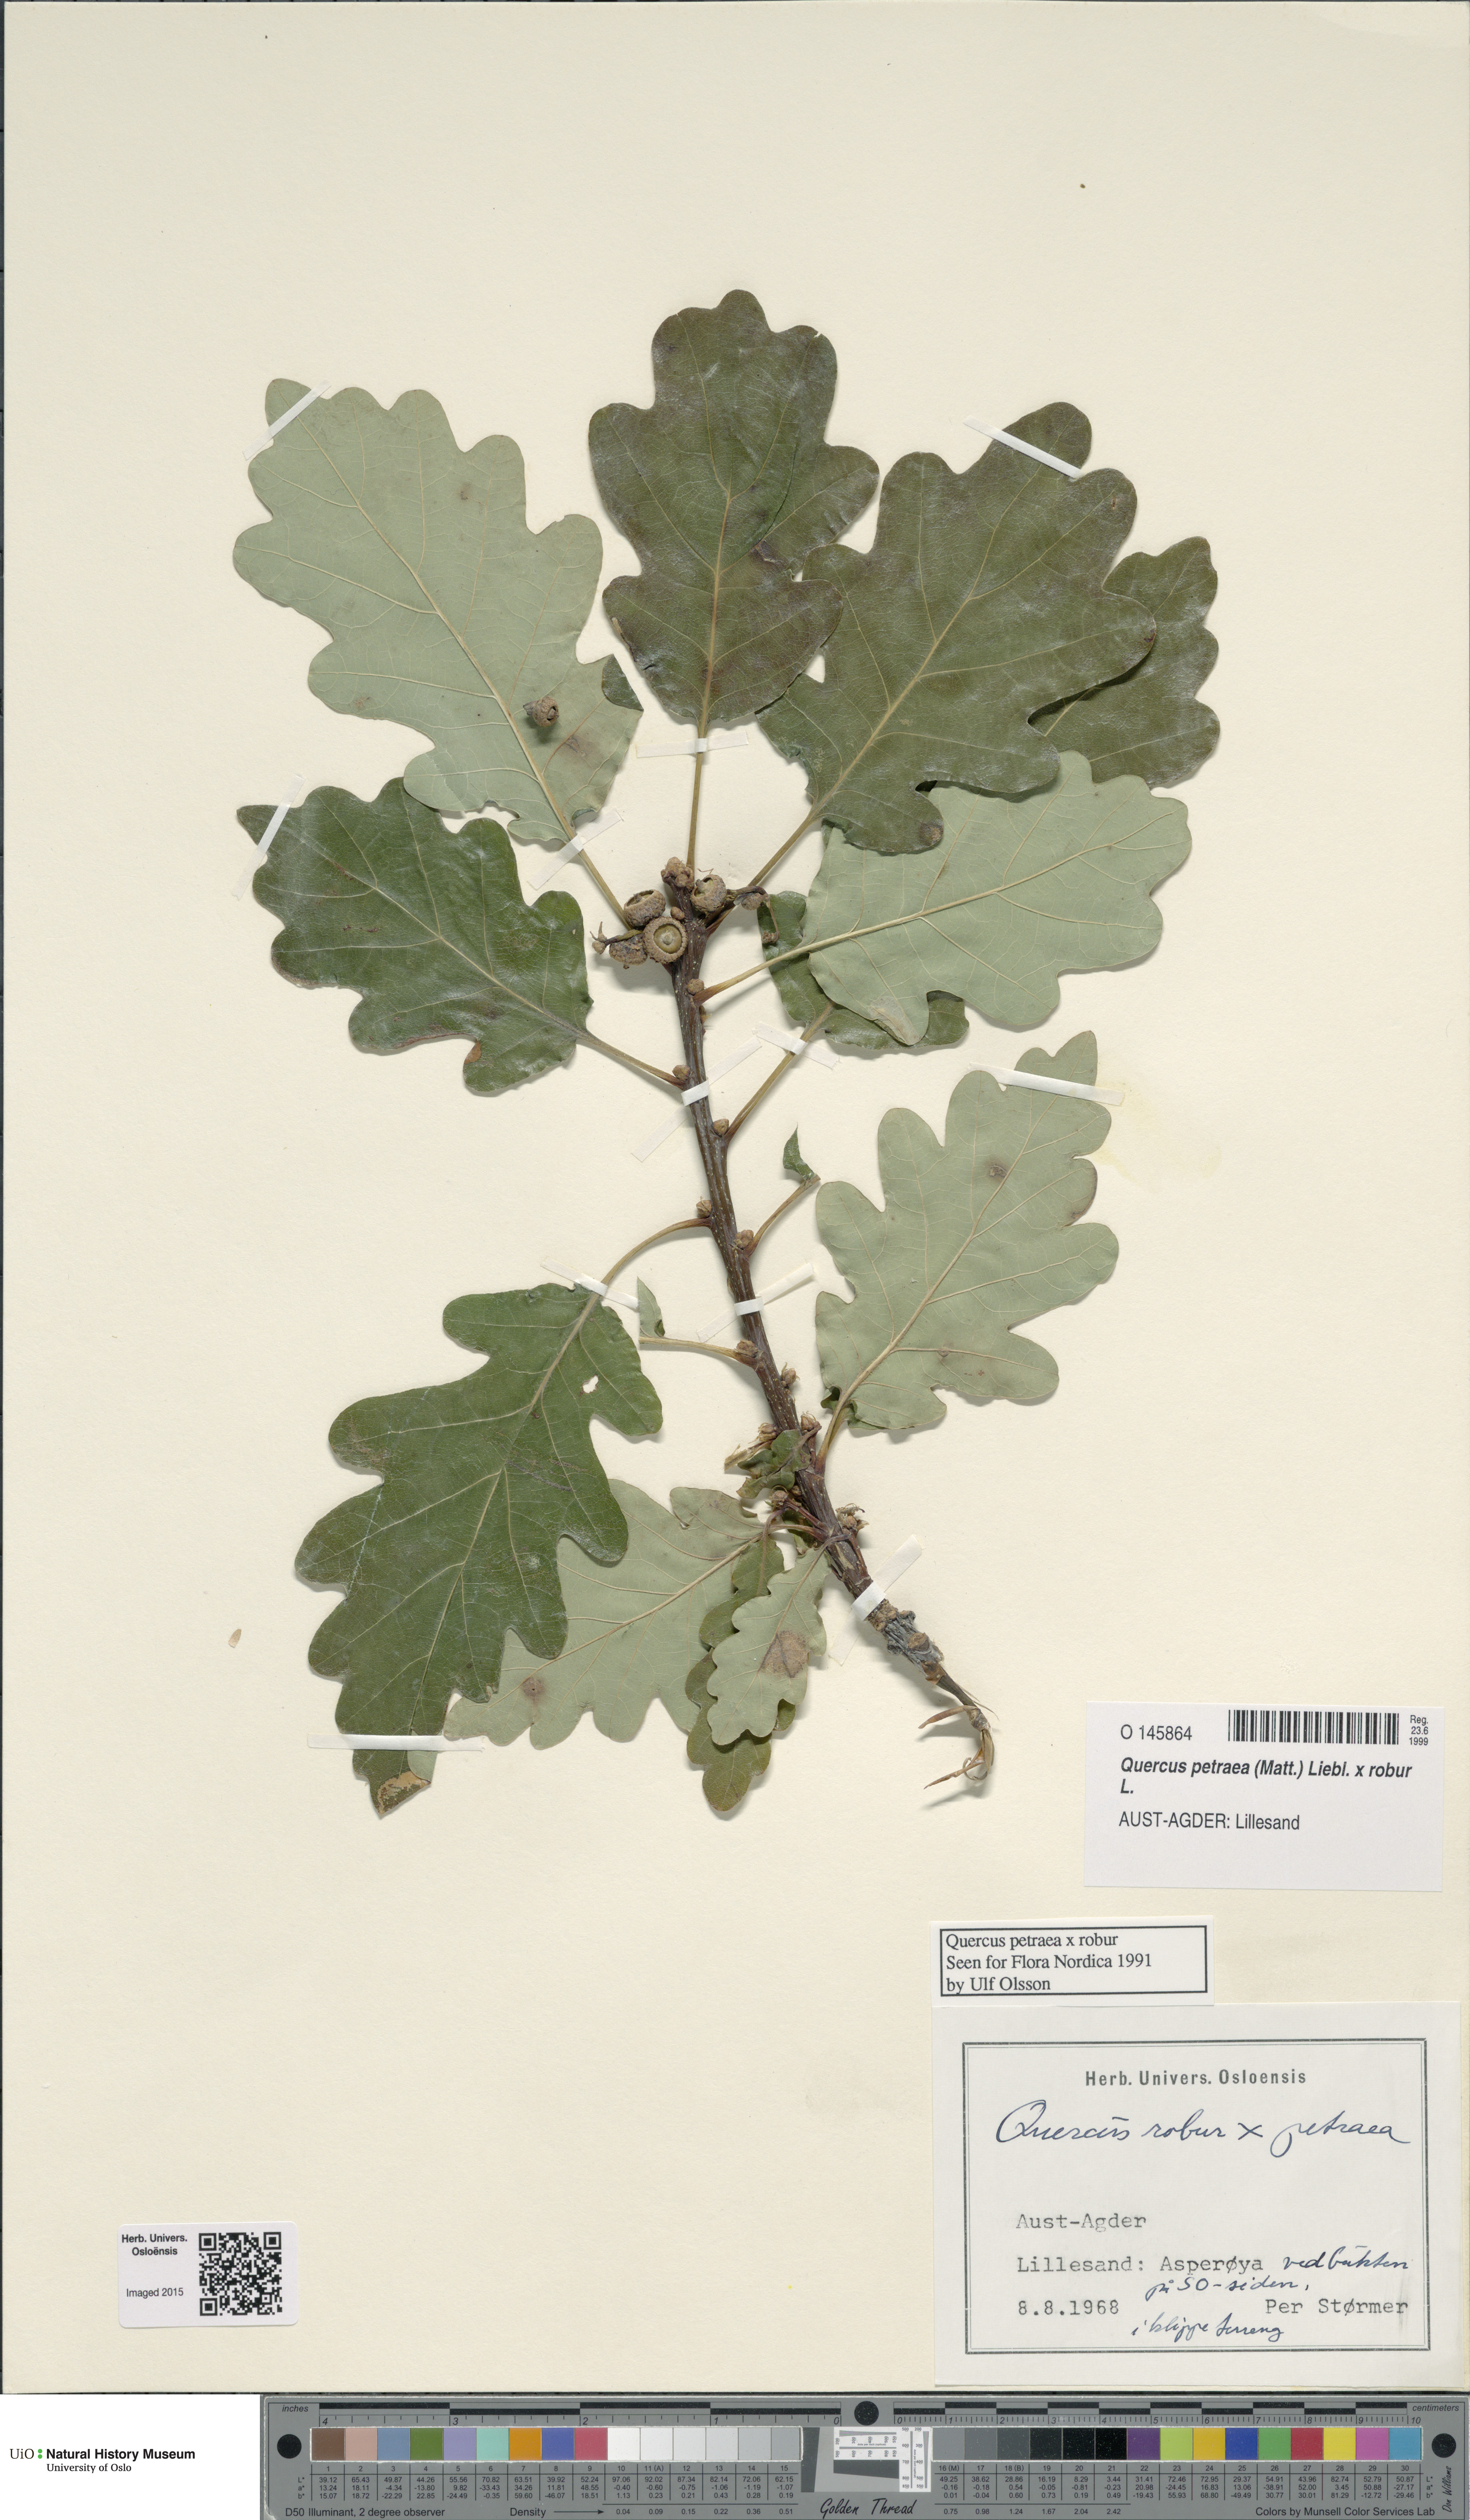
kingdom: Plantae
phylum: Tracheophyta
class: Magnoliopsida
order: Fagales
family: Fagaceae
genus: Quercus
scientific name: Quercus
